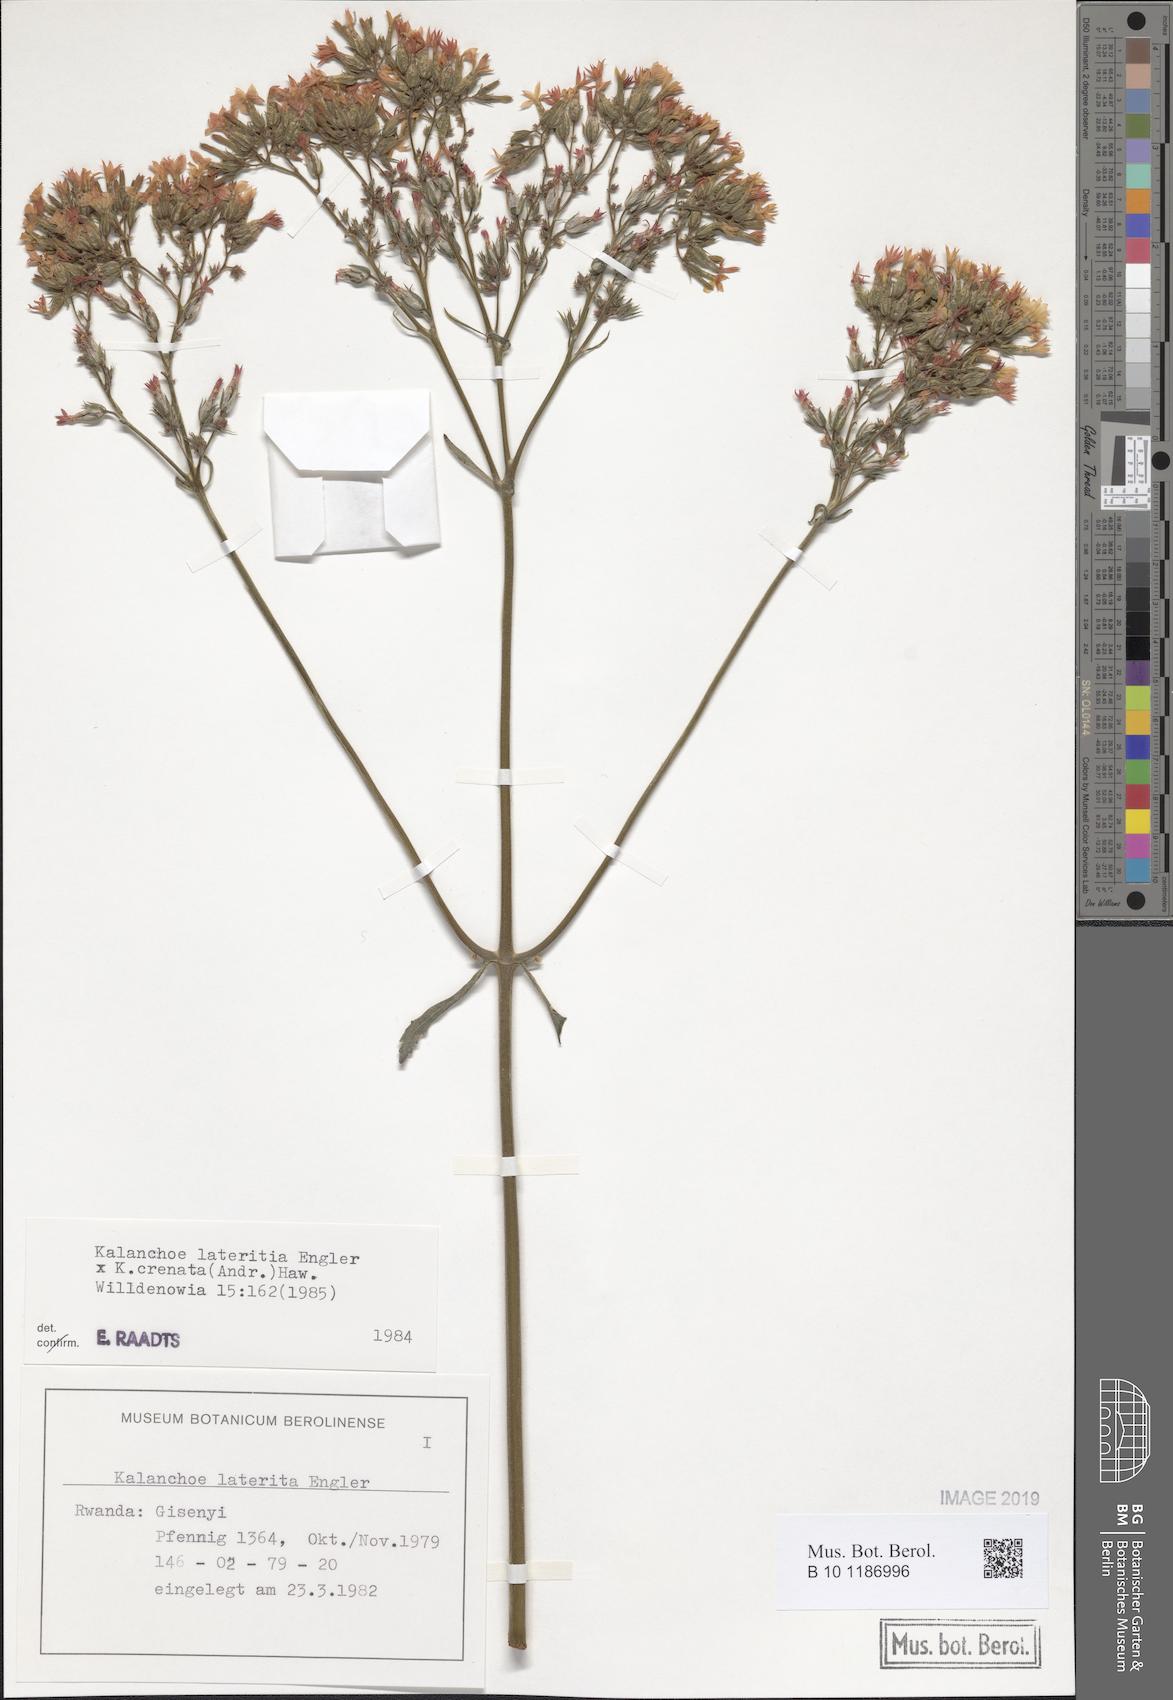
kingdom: Plantae
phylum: Tracheophyta
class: Magnoliopsida
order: Saxifragales
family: Crassulaceae
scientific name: Crassulaceae
